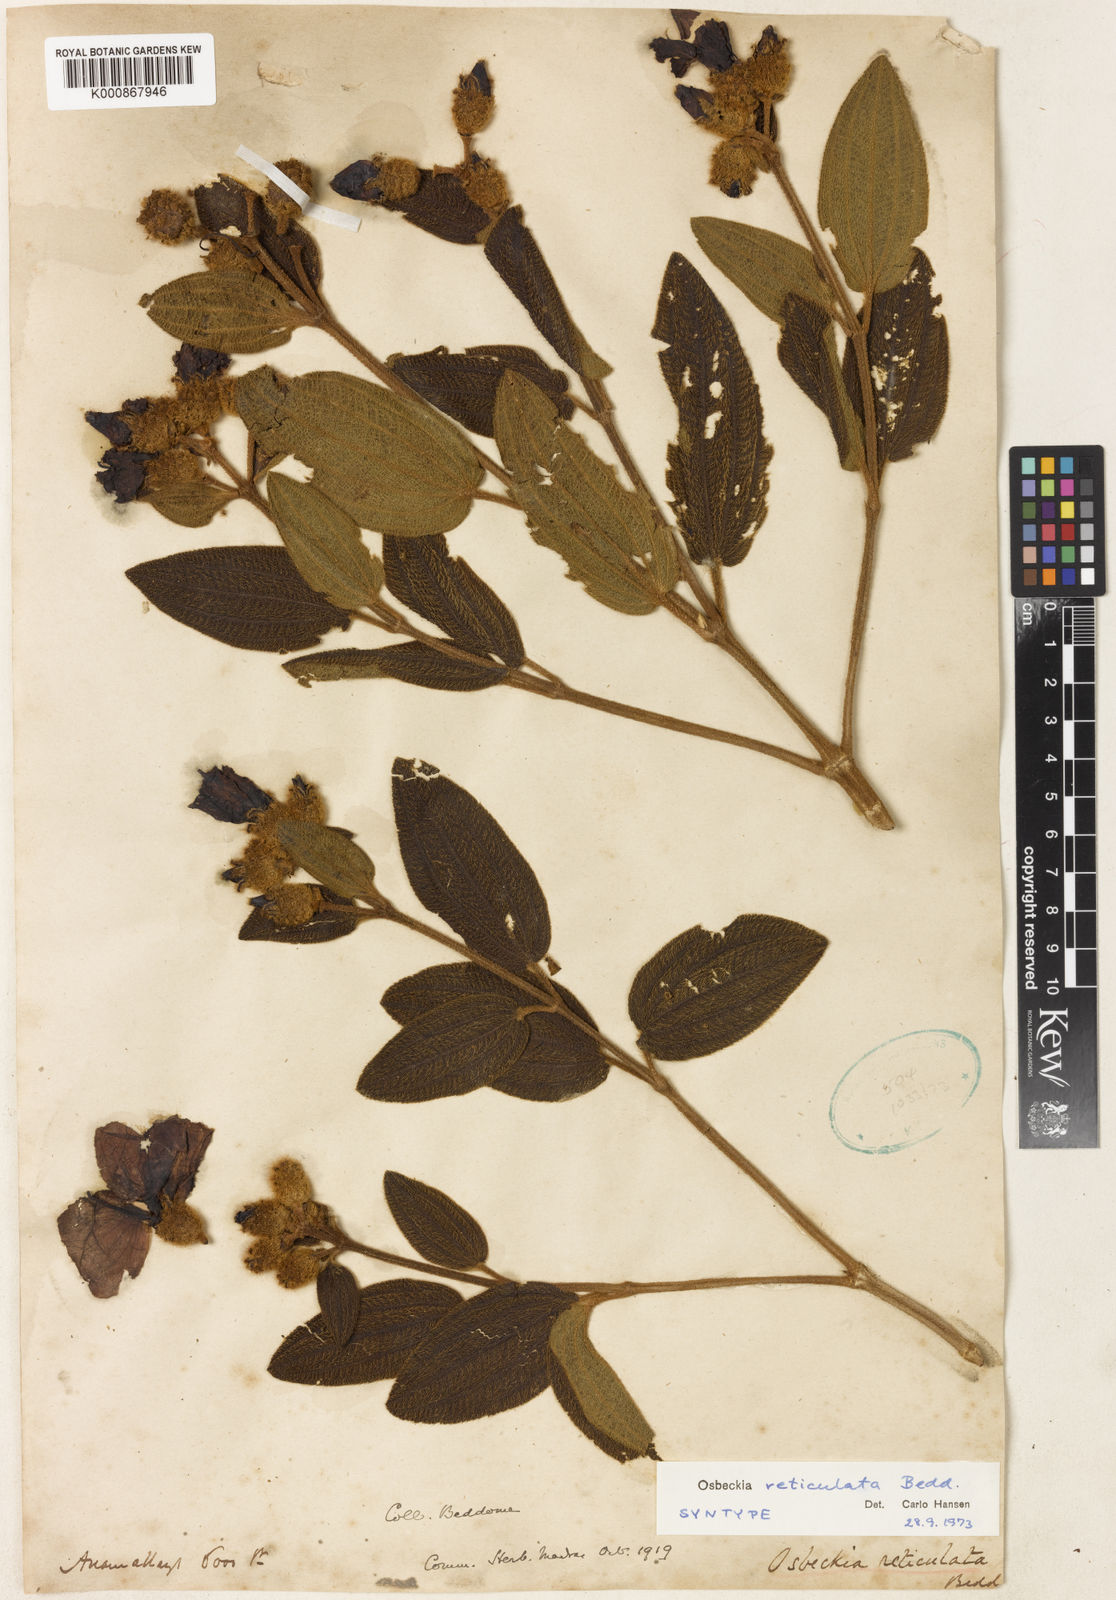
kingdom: Plantae
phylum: Tracheophyta
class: Magnoliopsida
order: Myrtales
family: Melastomataceae
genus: Osbeckia
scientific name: Osbeckia reticulata
